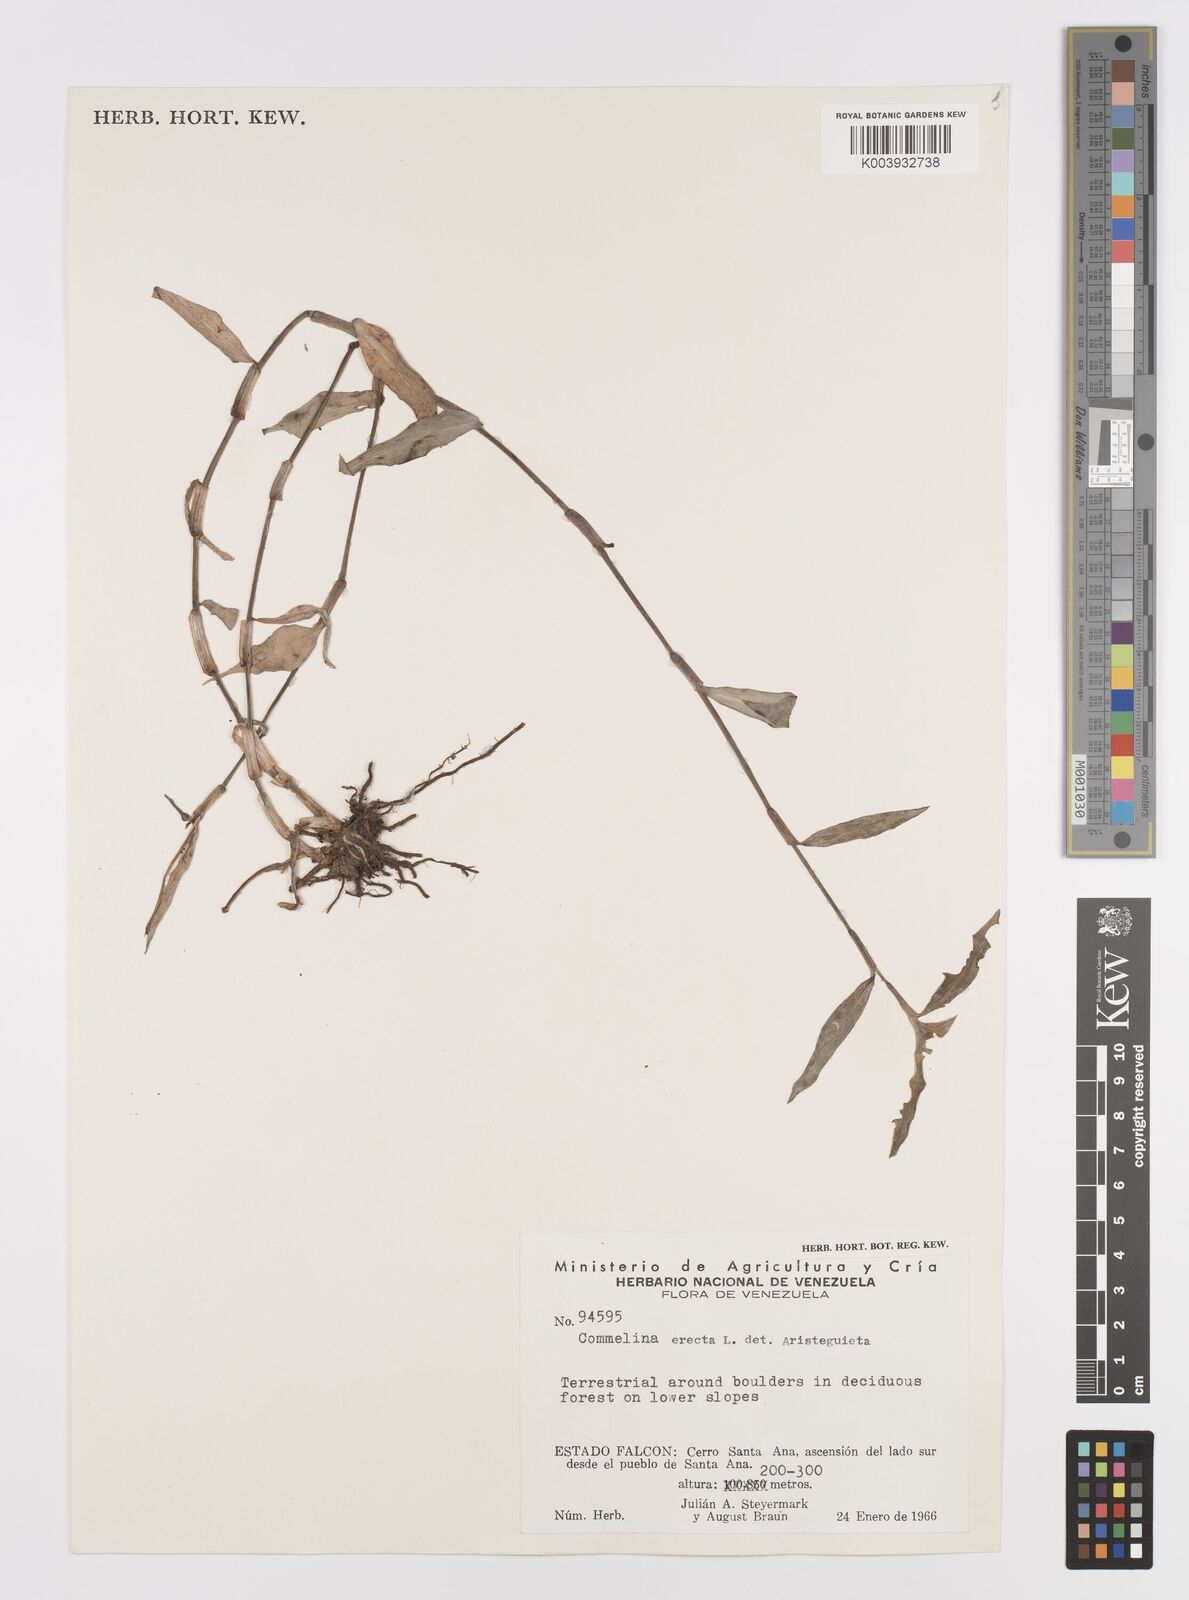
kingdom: Plantae
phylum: Tracheophyta
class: Liliopsida
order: Commelinales
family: Commelinaceae
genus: Commelina
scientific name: Commelina erecta
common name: Blousel blommetjie
